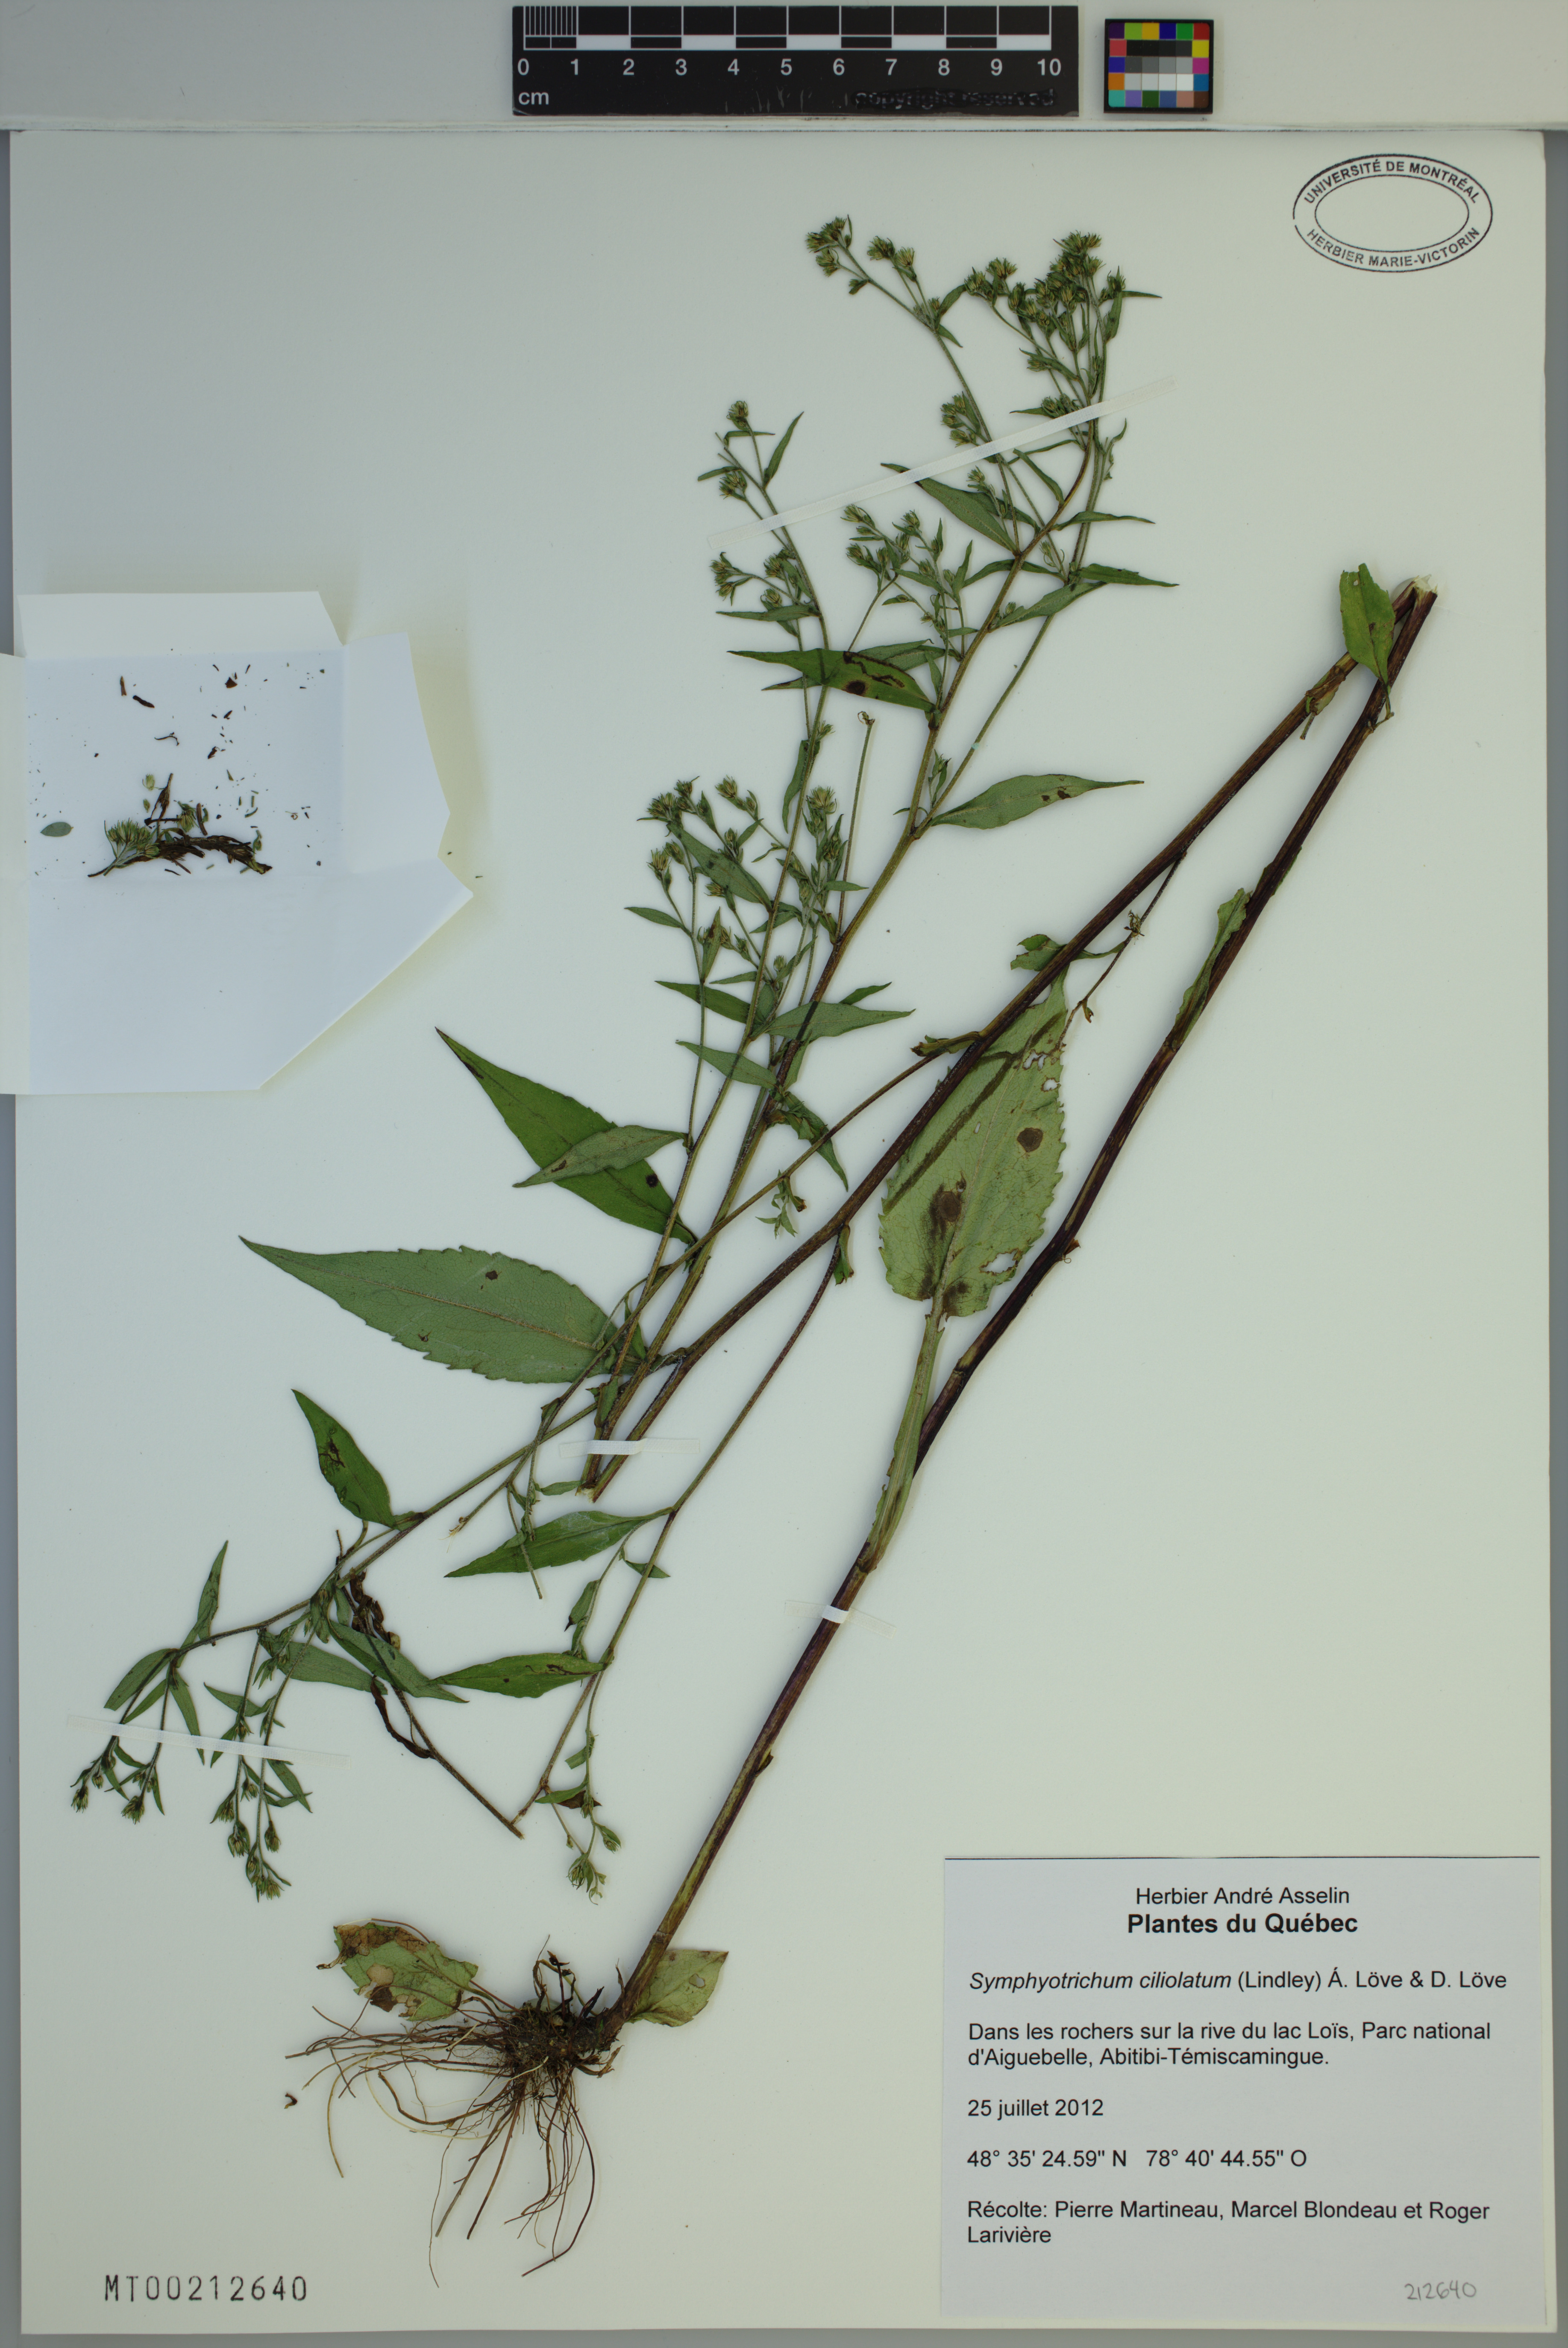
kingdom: Plantae
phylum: Tracheophyta
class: Magnoliopsida
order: Asterales
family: Asteraceae
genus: Symphyotrichum
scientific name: Symphyotrichum ciliolatum
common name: Fringed blue aster
